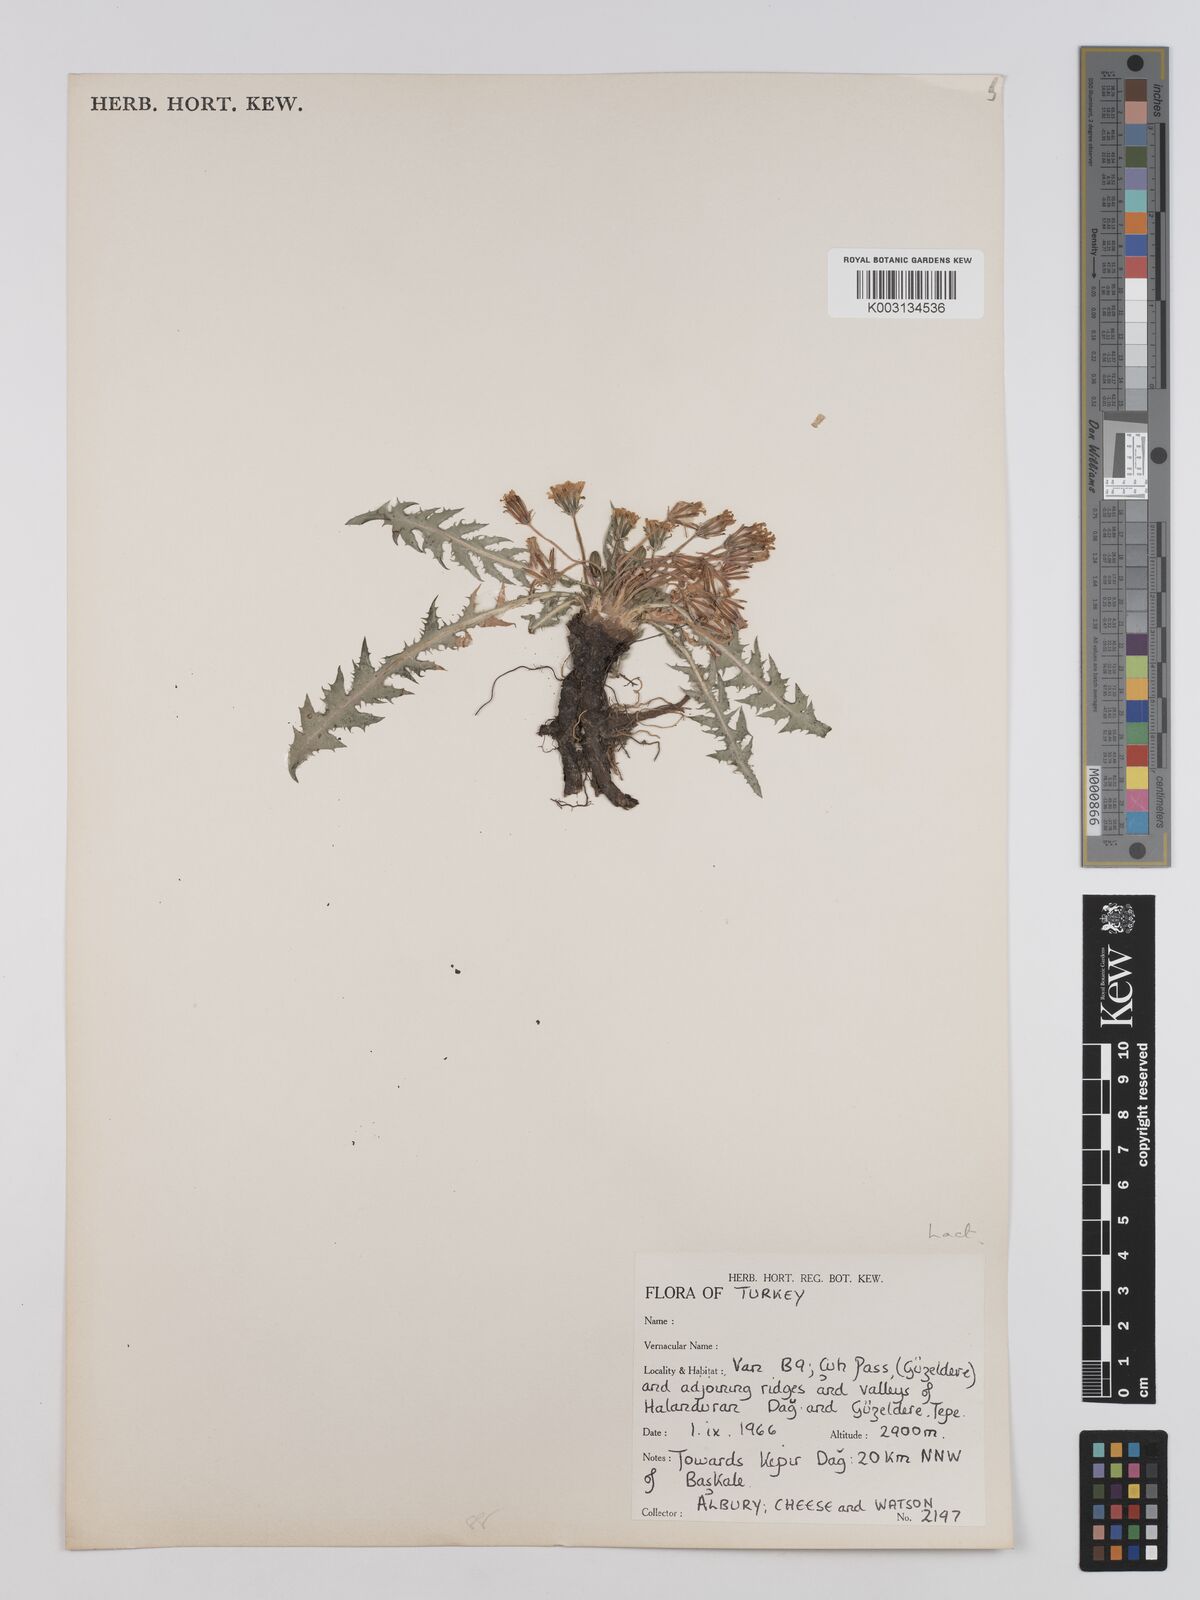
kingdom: Plantae
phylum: Tracheophyta
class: Magnoliopsida
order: Asterales
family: Asteraceae
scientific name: Asteraceae
